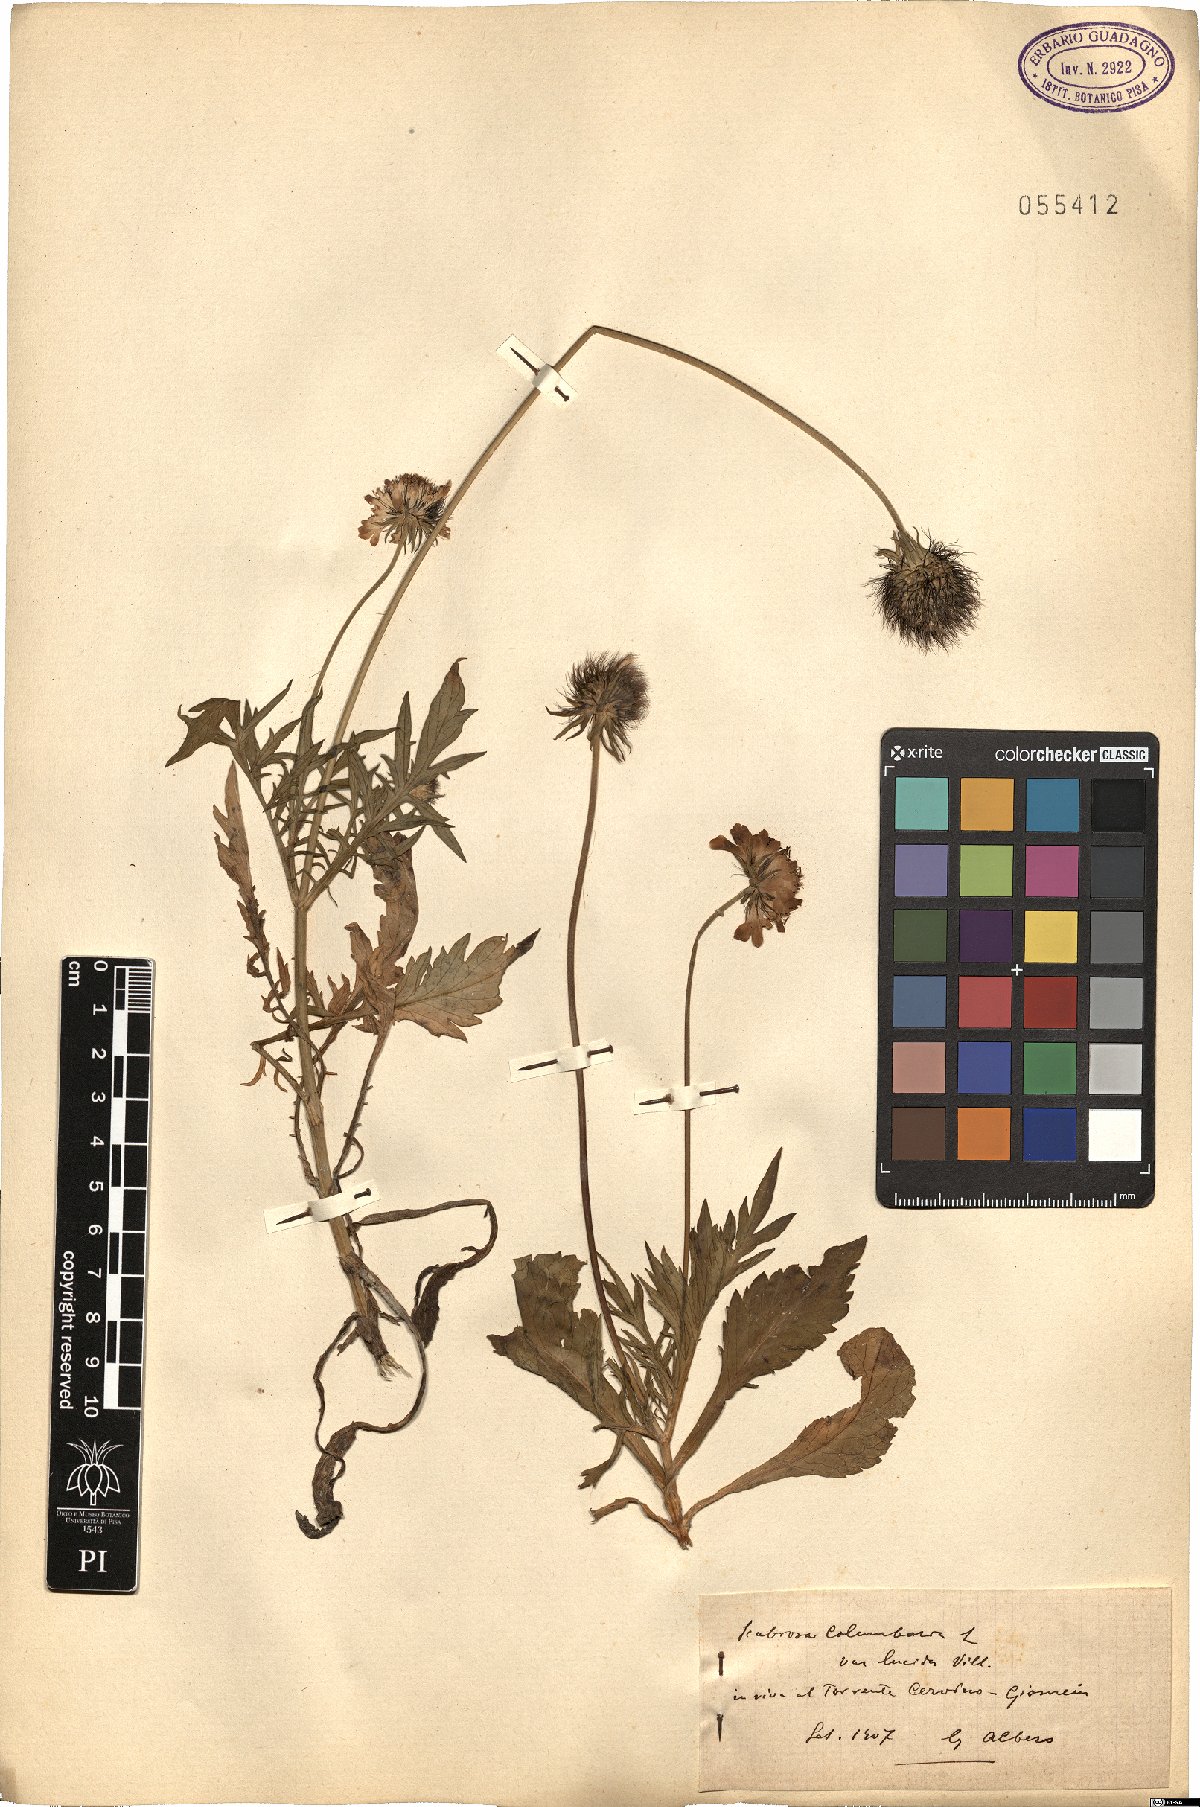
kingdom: Plantae
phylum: Tracheophyta
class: Magnoliopsida
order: Dipsacales
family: Caprifoliaceae
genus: Scabiosa
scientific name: Scabiosa lucida
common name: Shining scabious
